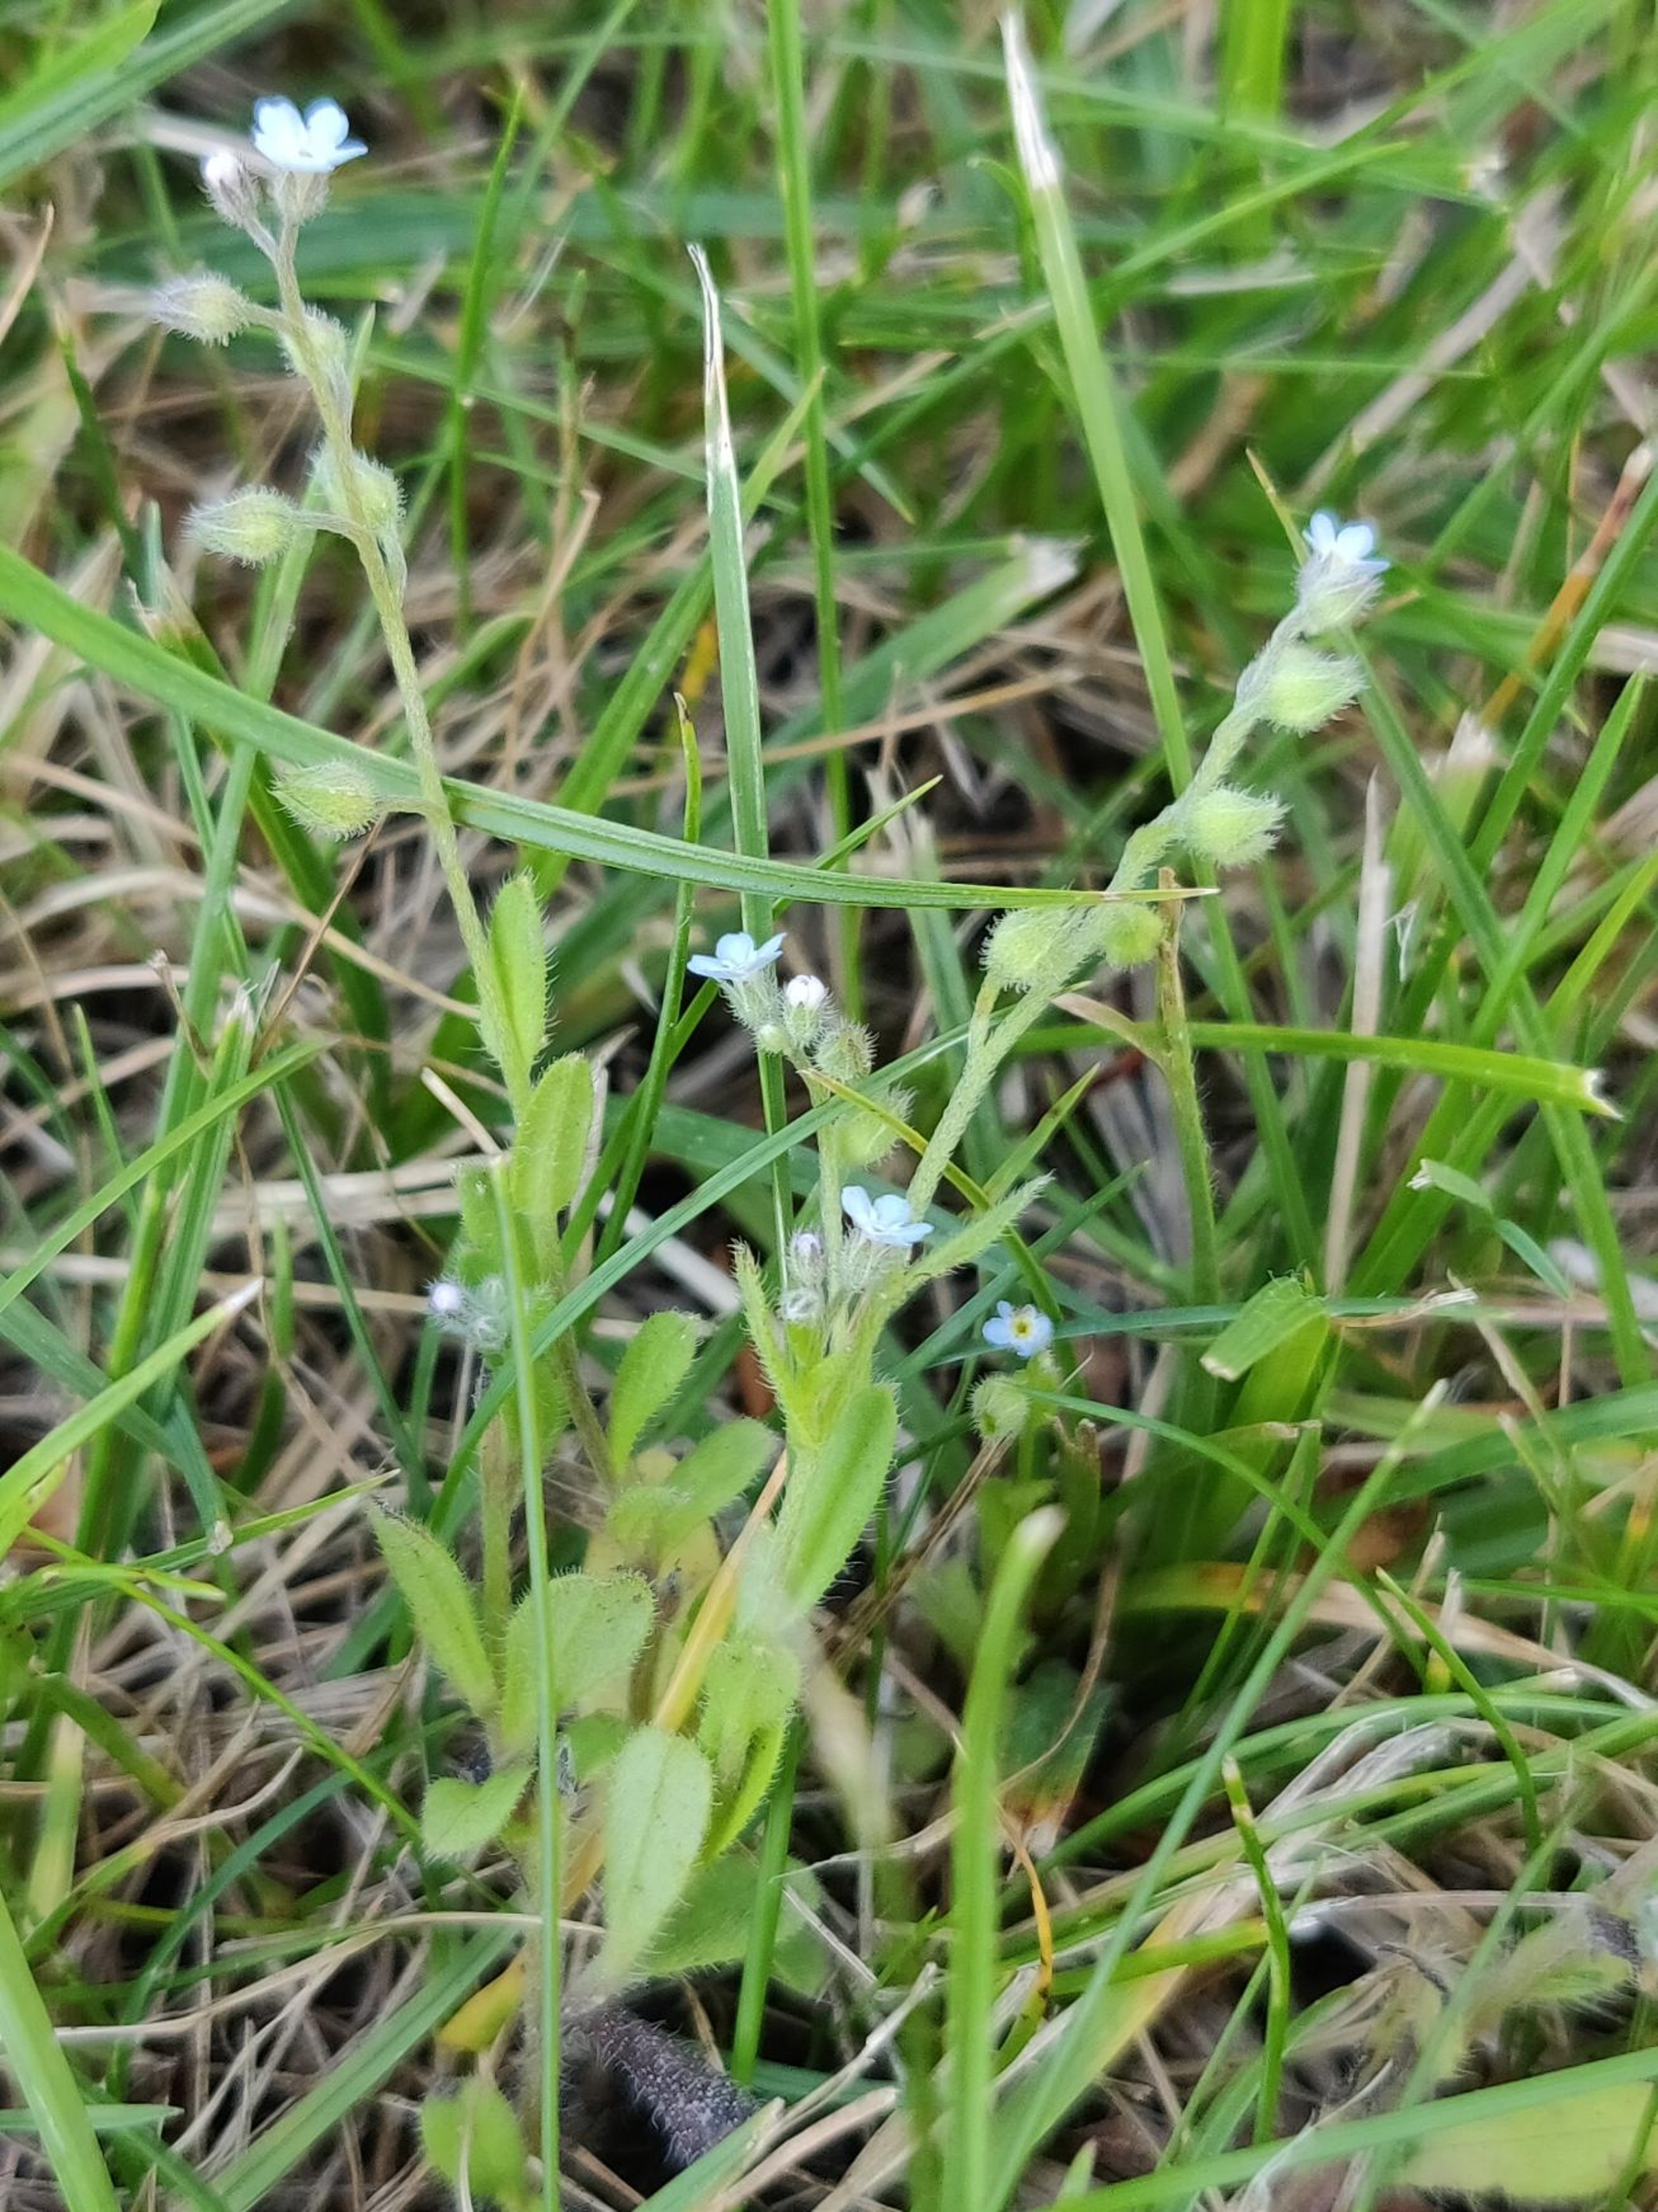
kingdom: Plantae
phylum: Tracheophyta
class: Magnoliopsida
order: Boraginales
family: Boraginaceae
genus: Myosotis
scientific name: Myosotis ramosissima
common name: Bakke-forglemmigej
